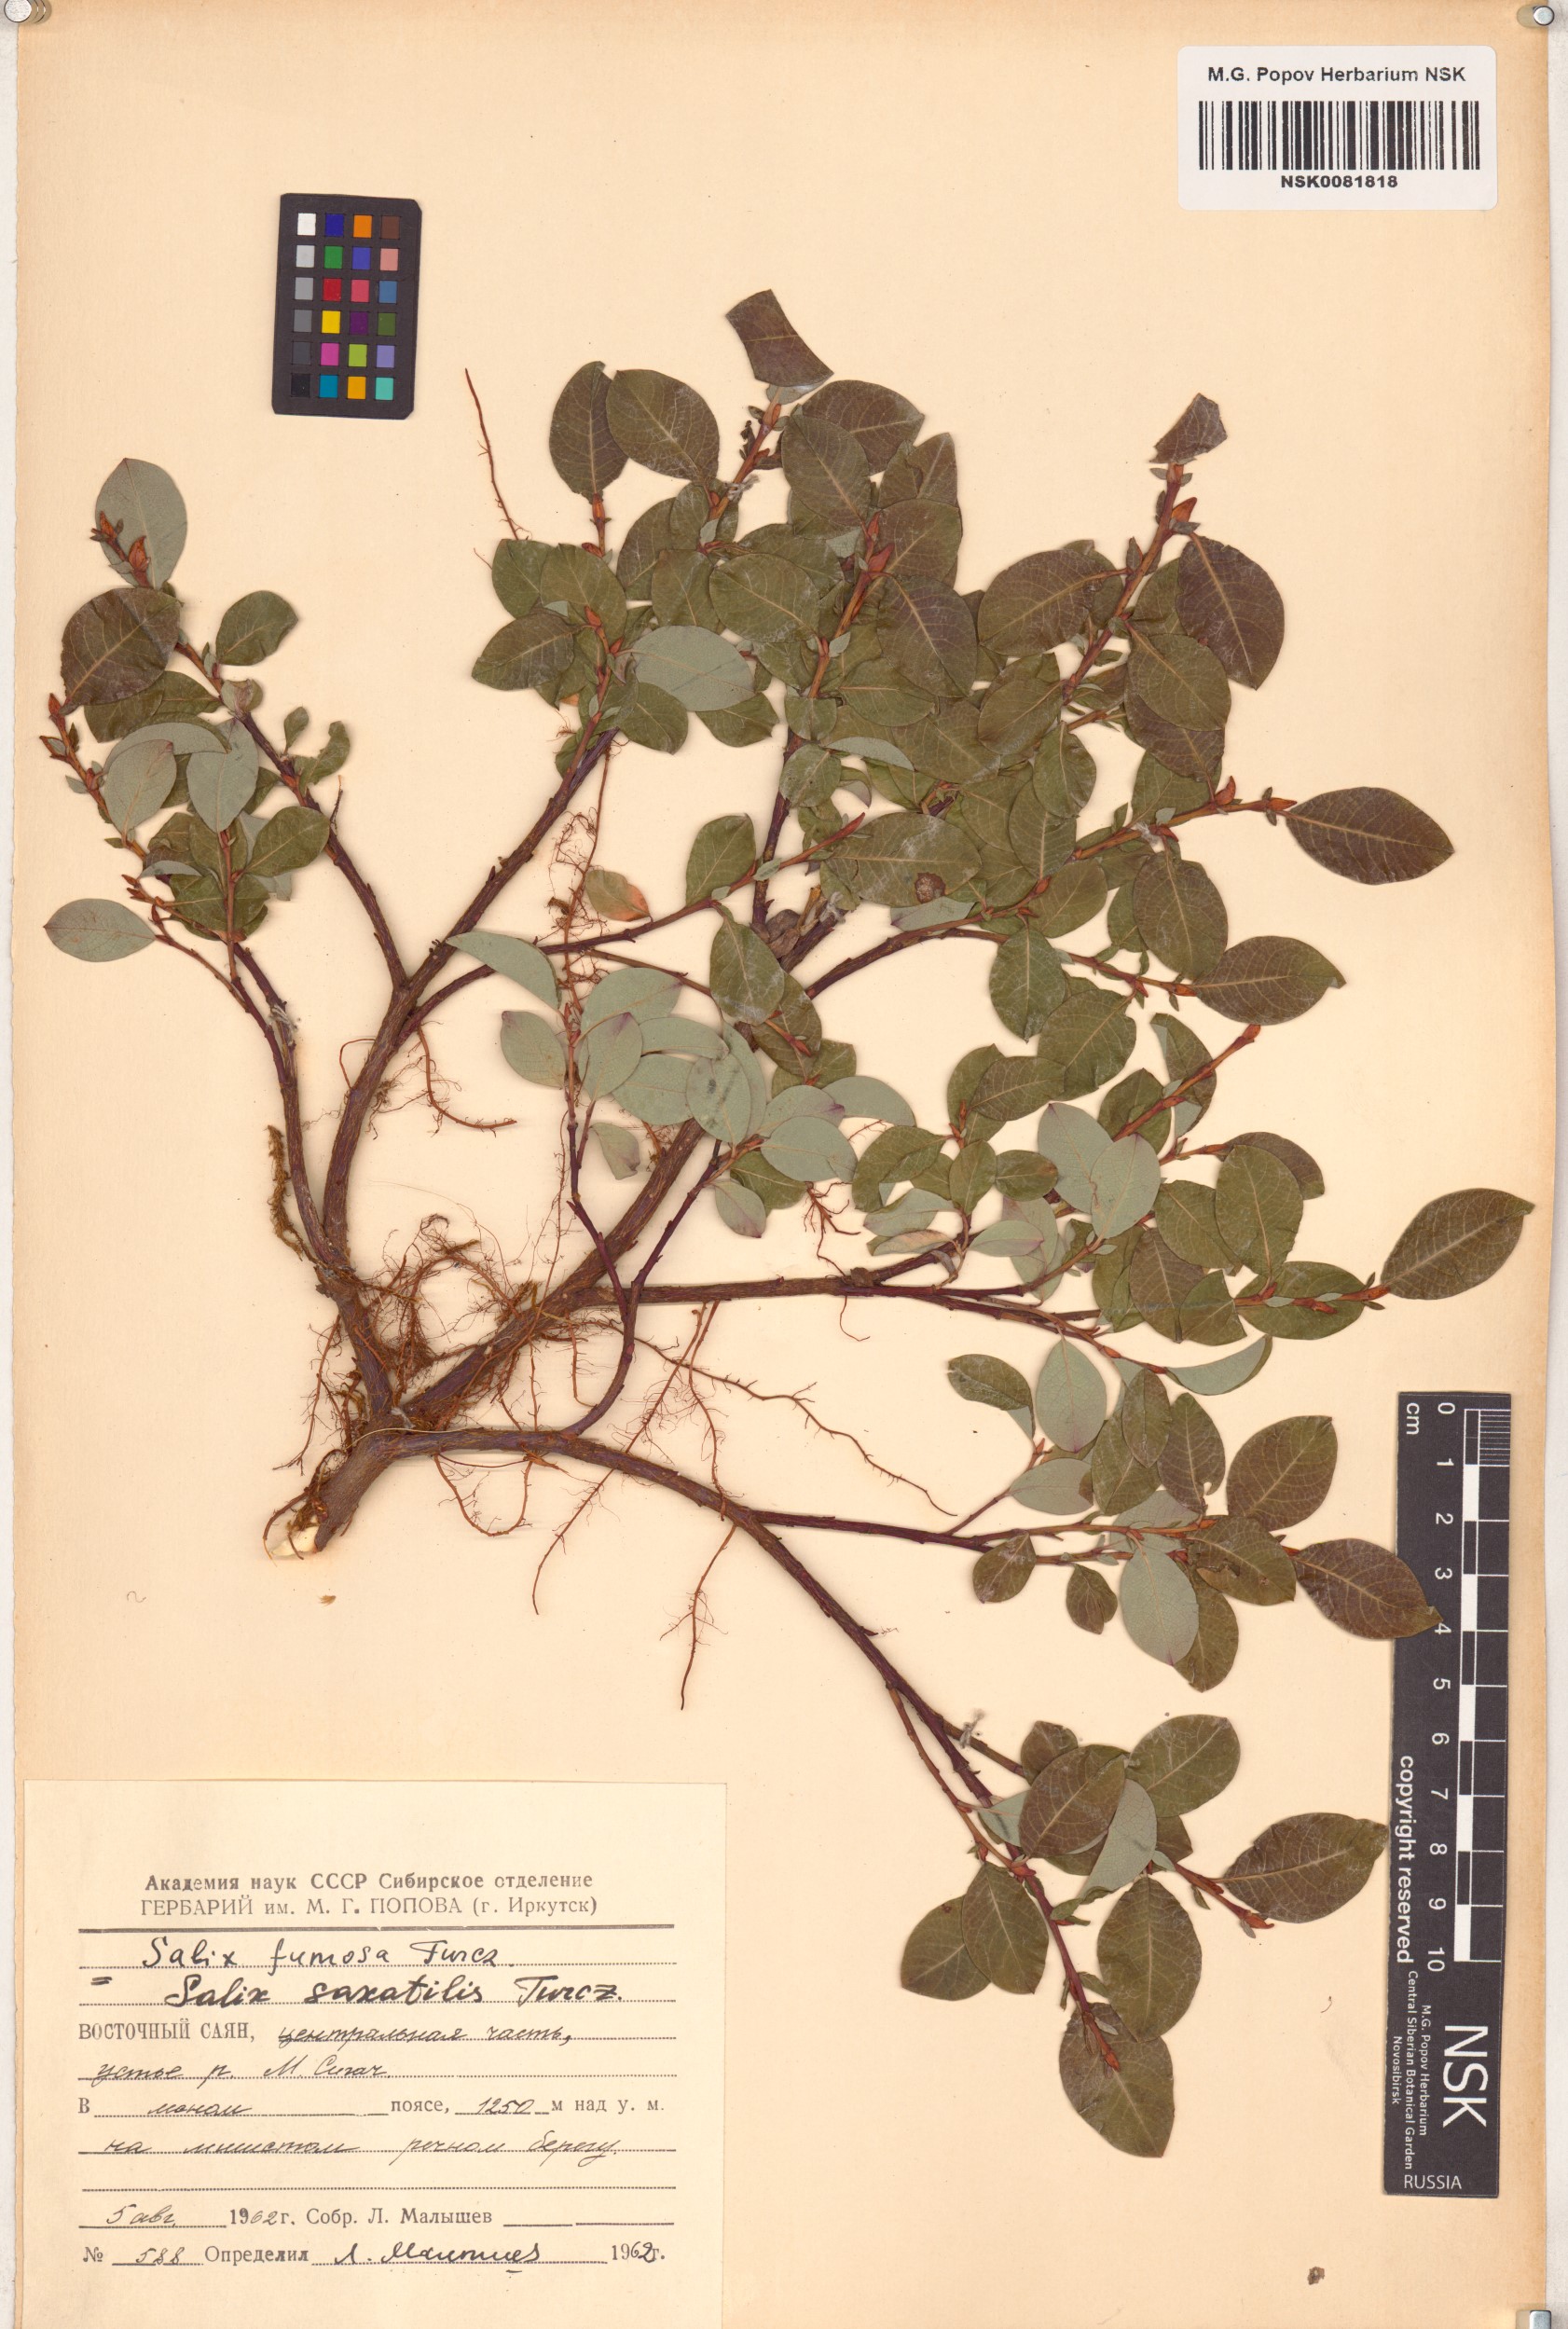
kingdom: Plantae
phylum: Tracheophyta
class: Magnoliopsida
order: Malpighiales
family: Salicaceae
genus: Salix
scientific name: Salix saxatilis
